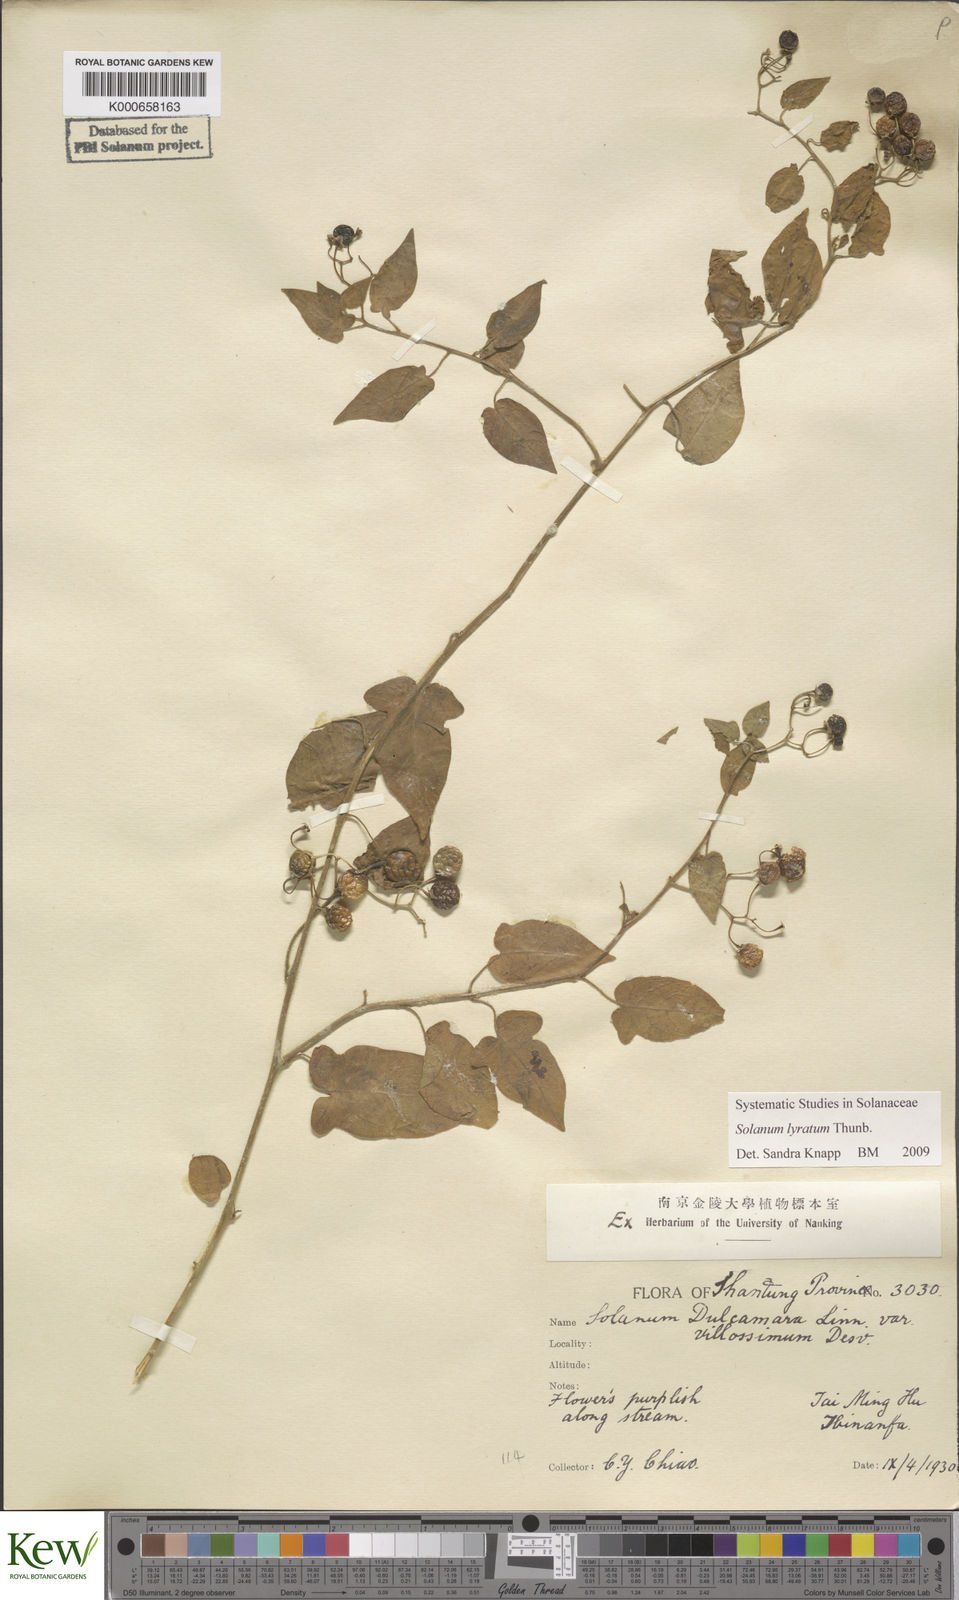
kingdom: Plantae
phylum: Tracheophyta
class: Magnoliopsida
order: Solanales
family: Solanaceae
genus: Solanum
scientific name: Solanum lyratum
